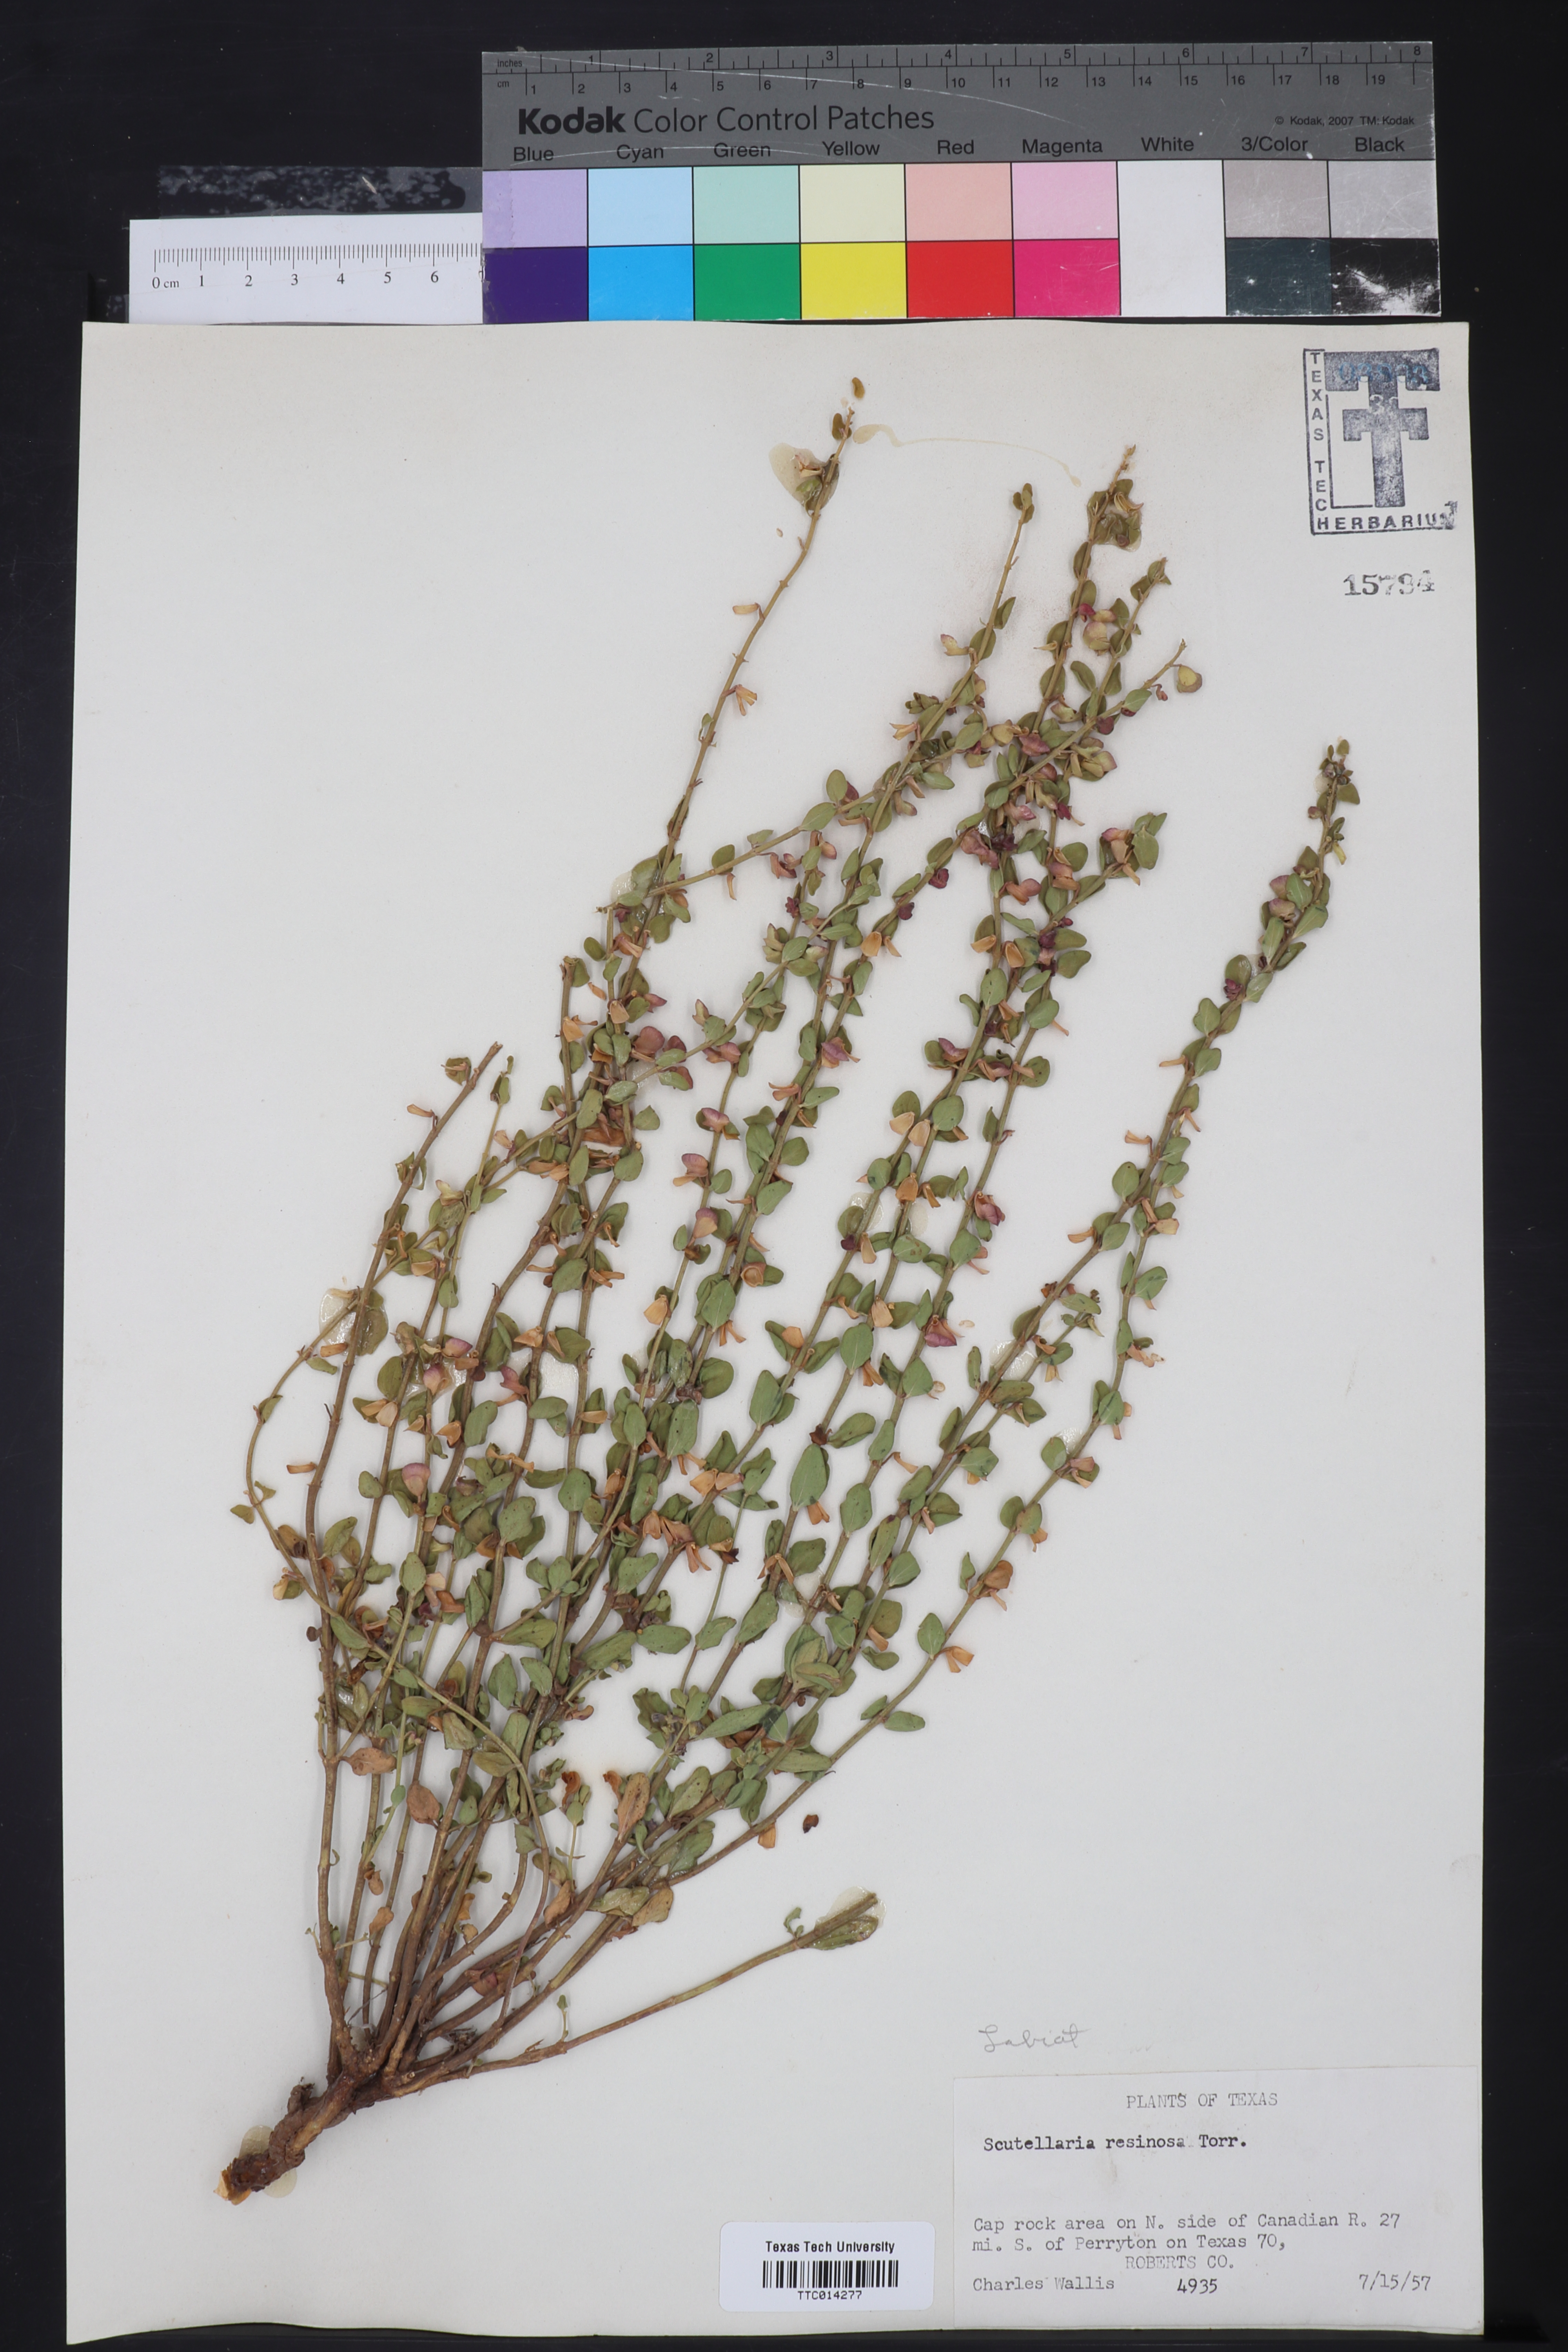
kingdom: Plantae
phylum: Tracheophyta
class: Magnoliopsida
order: Lamiales
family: Lamiaceae
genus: Scutellaria
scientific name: Scutellaria resinosa
